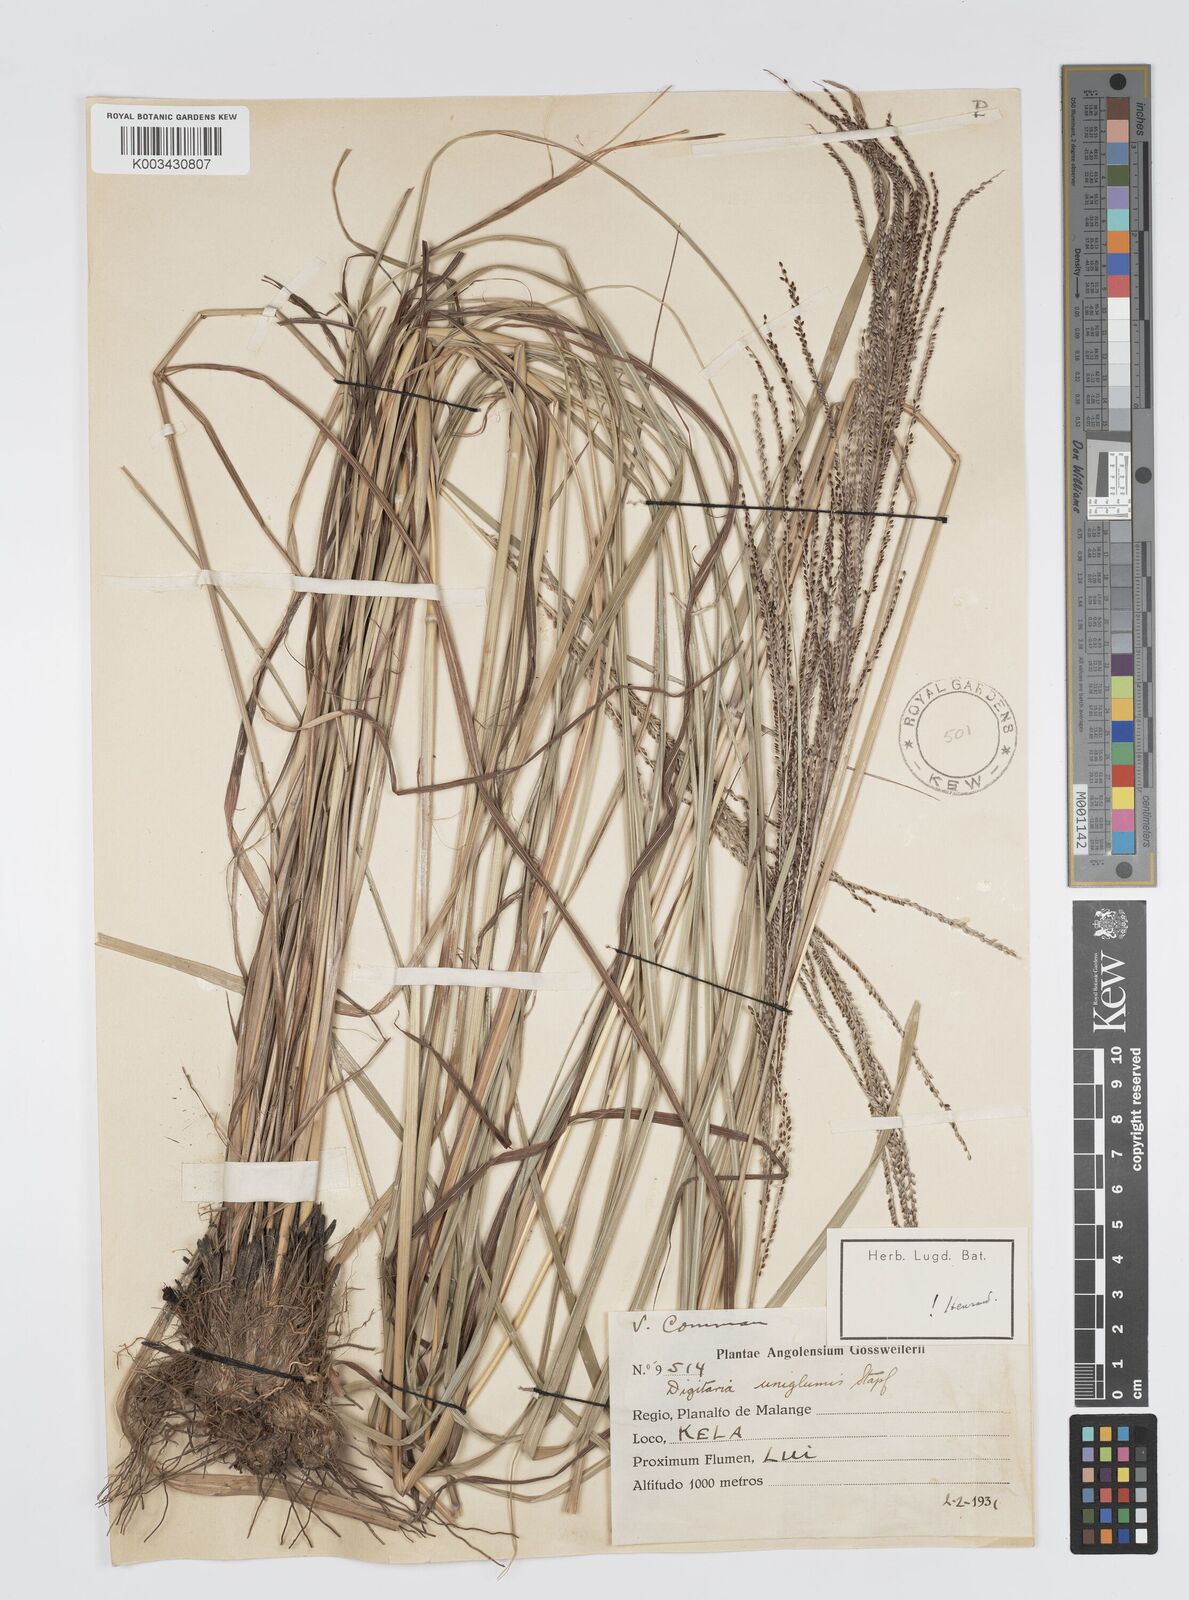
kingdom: Plantae
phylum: Tracheophyta
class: Liliopsida
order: Poales
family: Poaceae
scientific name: Poaceae
